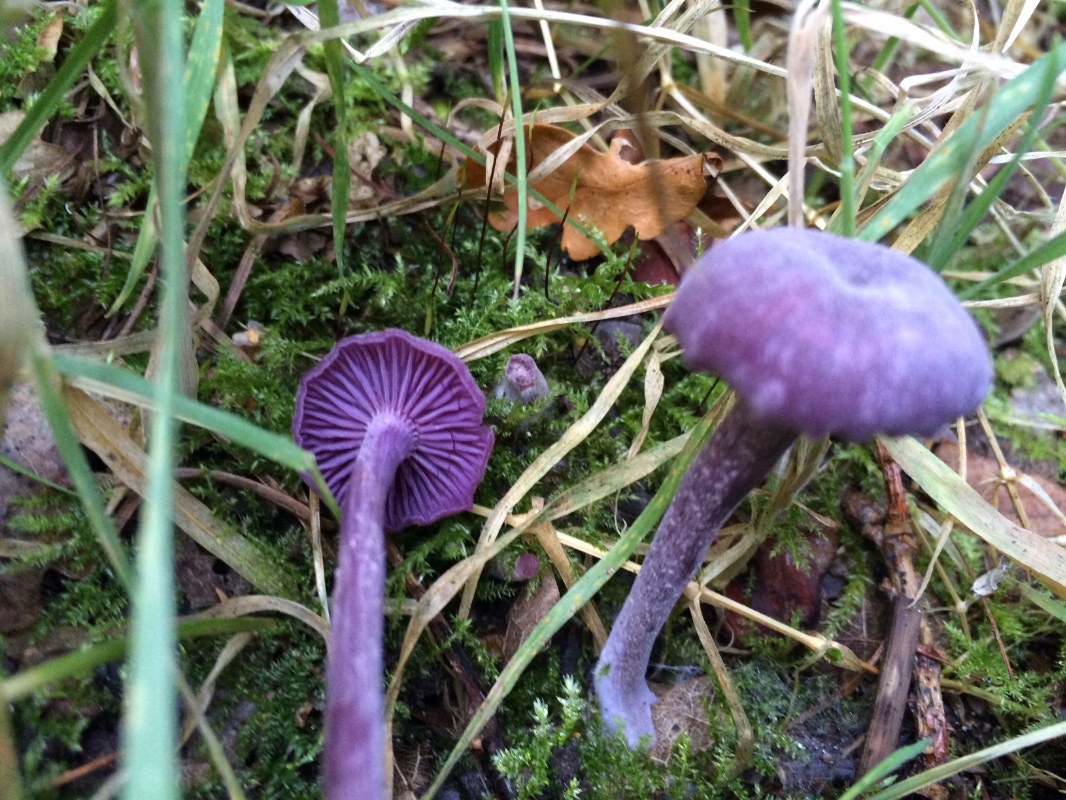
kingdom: Fungi
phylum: Basidiomycota
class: Agaricomycetes
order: Agaricales
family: Hydnangiaceae
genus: Laccaria
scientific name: Laccaria amethystina
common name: violet ametysthat
